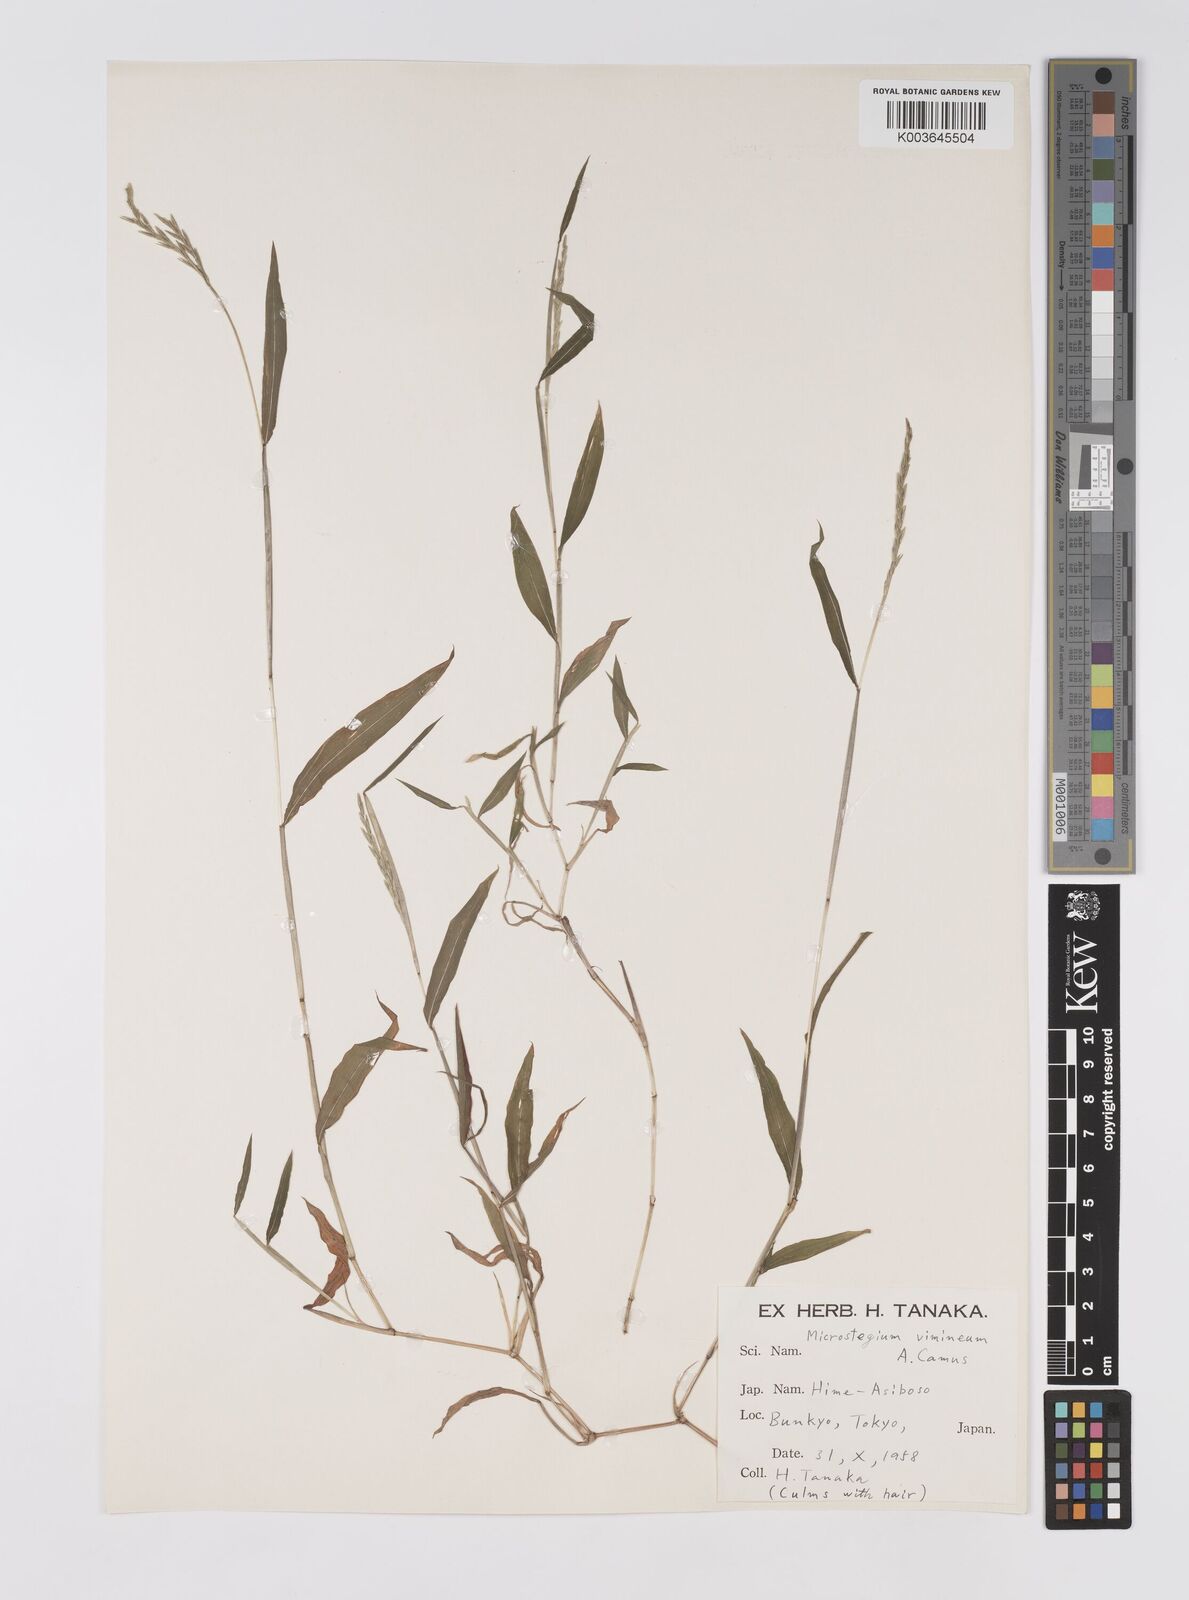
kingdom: Plantae
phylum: Tracheophyta
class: Liliopsida
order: Poales
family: Poaceae
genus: Microstegium
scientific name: Microstegium vimineum
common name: Japanese stiltgrass
